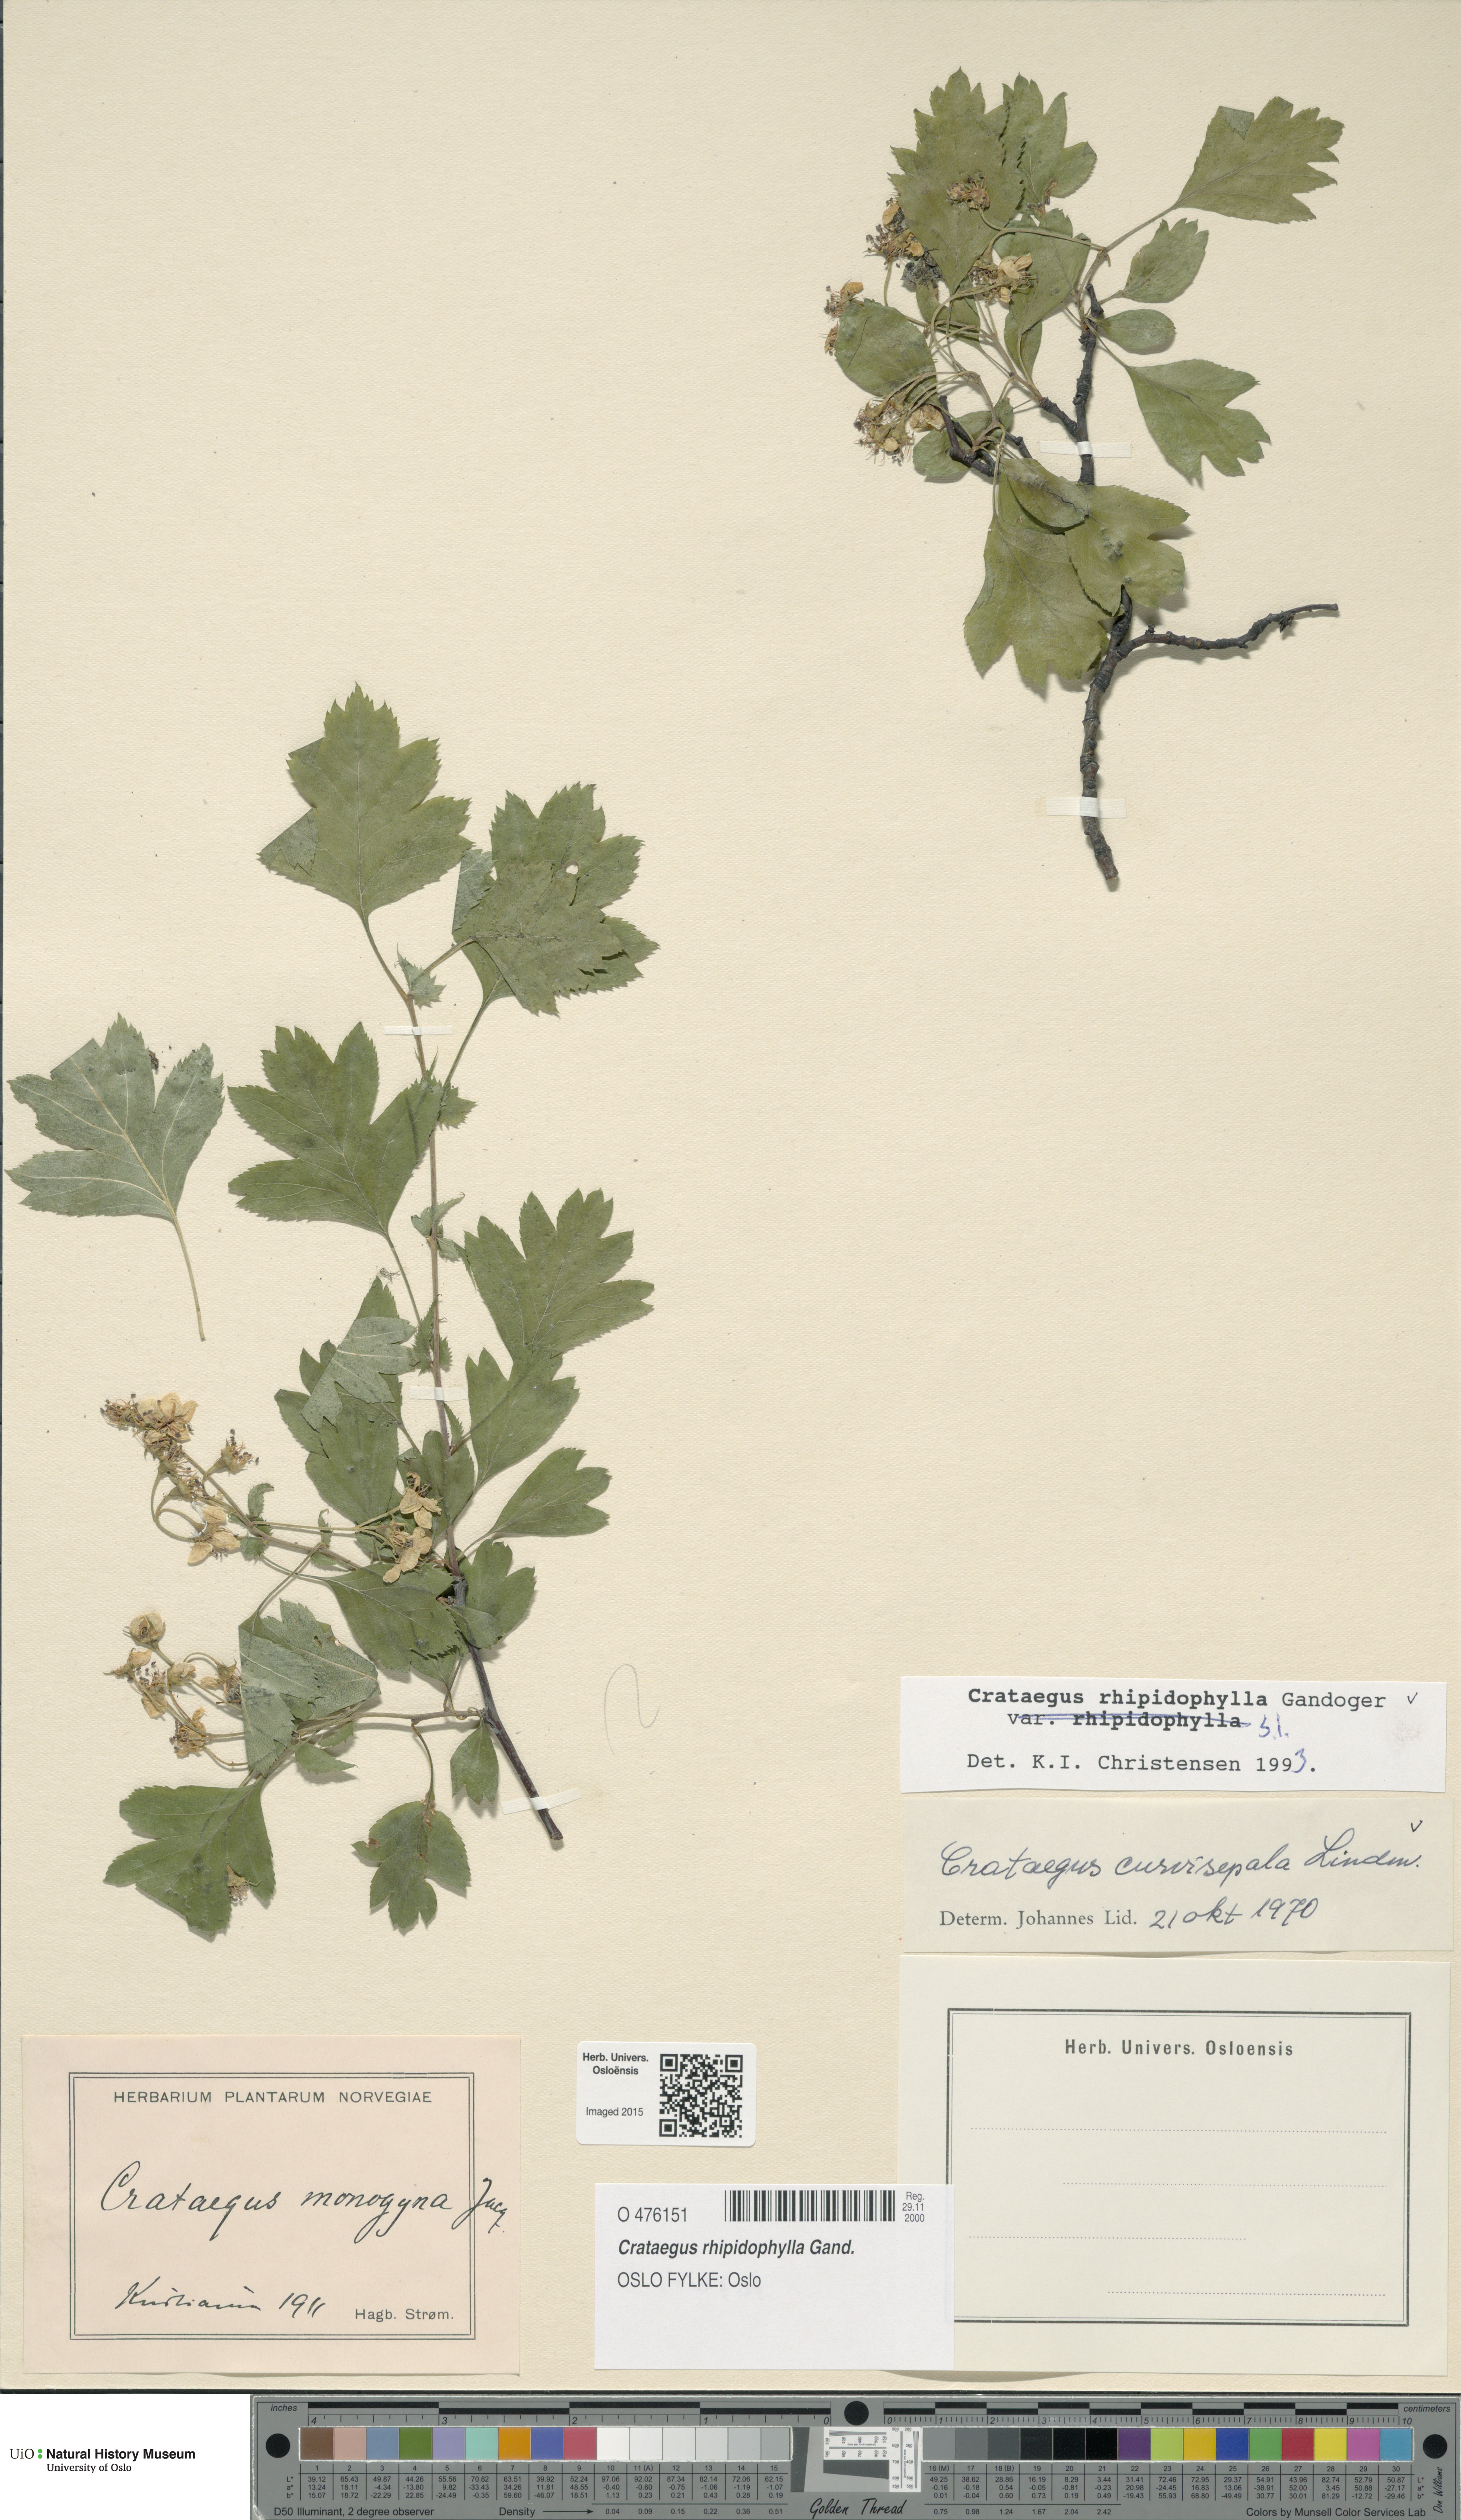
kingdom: Plantae
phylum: Tracheophyta
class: Magnoliopsida
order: Rosales
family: Rosaceae
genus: Crataegus
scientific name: Crataegus rhipidophylla
